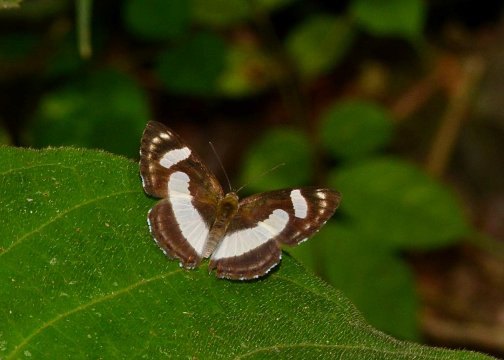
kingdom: Animalia
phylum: Arthropoda
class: Insecta
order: Lepidoptera
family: Riodinidae
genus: Thisbe
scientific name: Thisbe irenea
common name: Irenia Metalmark
